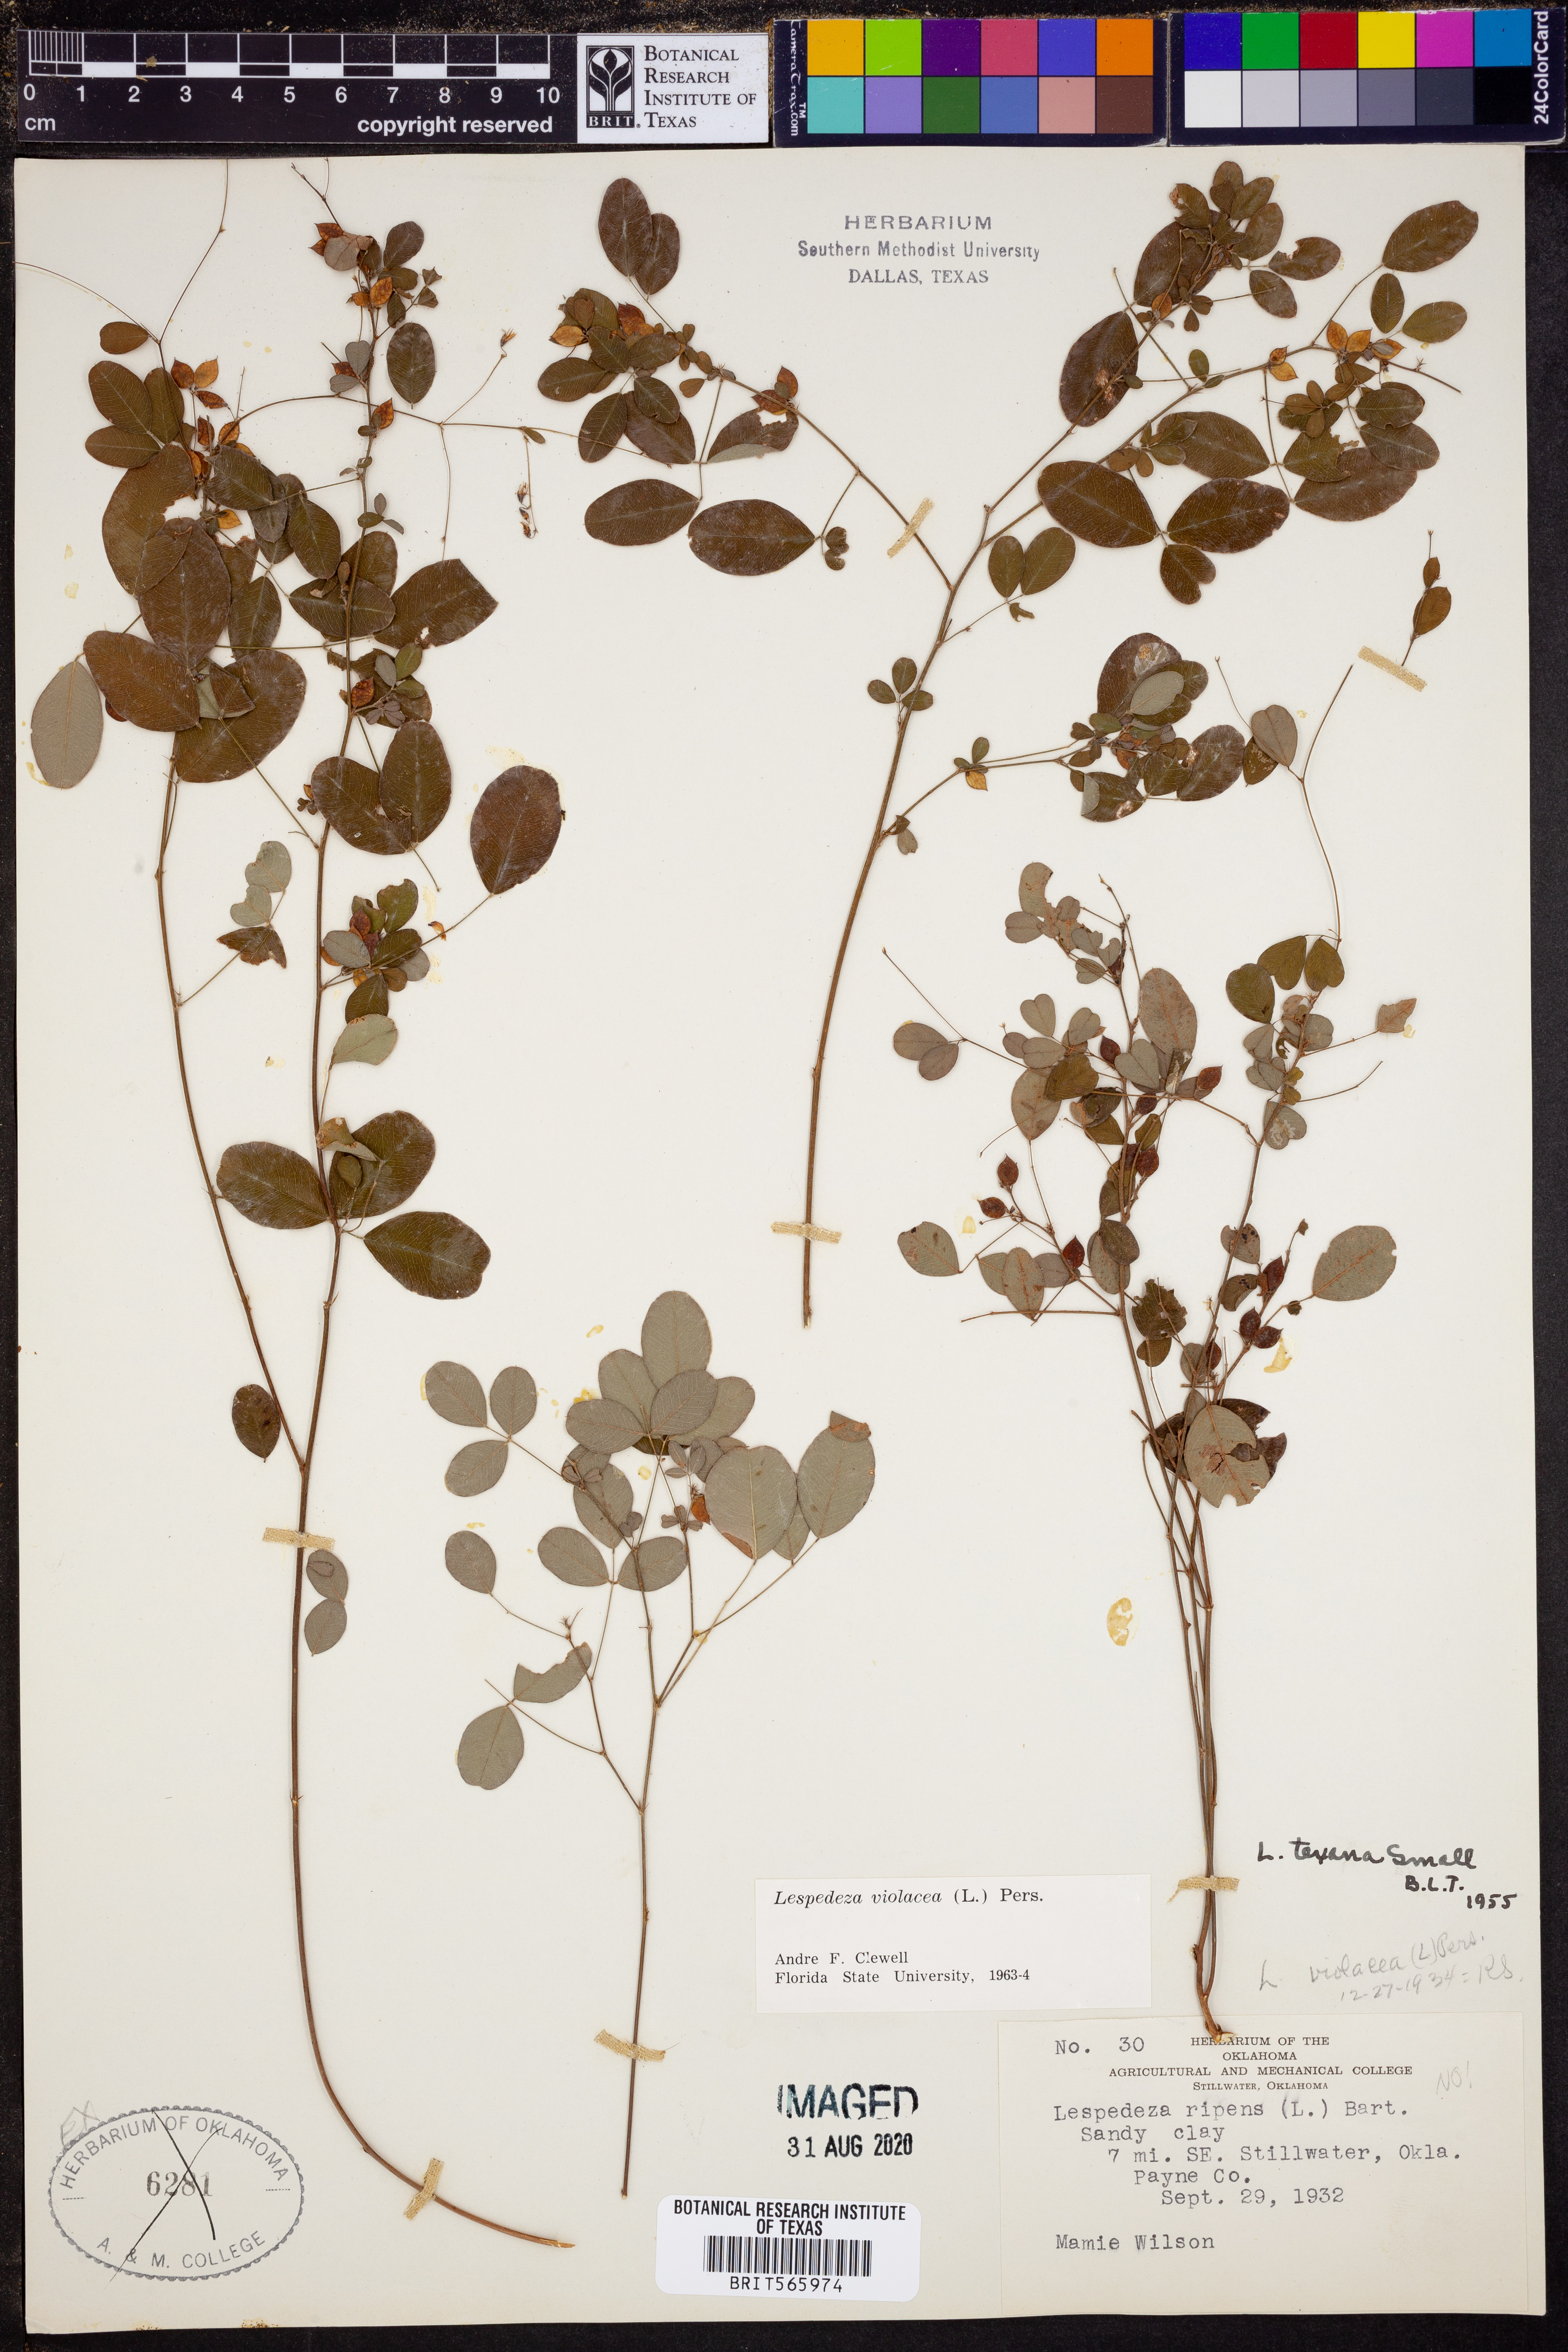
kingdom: Plantae
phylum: Tracheophyta
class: Magnoliopsida
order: Fabales
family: Fabaceae
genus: Lespedeza
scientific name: Lespedeza violacea
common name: Wand bush-clover
